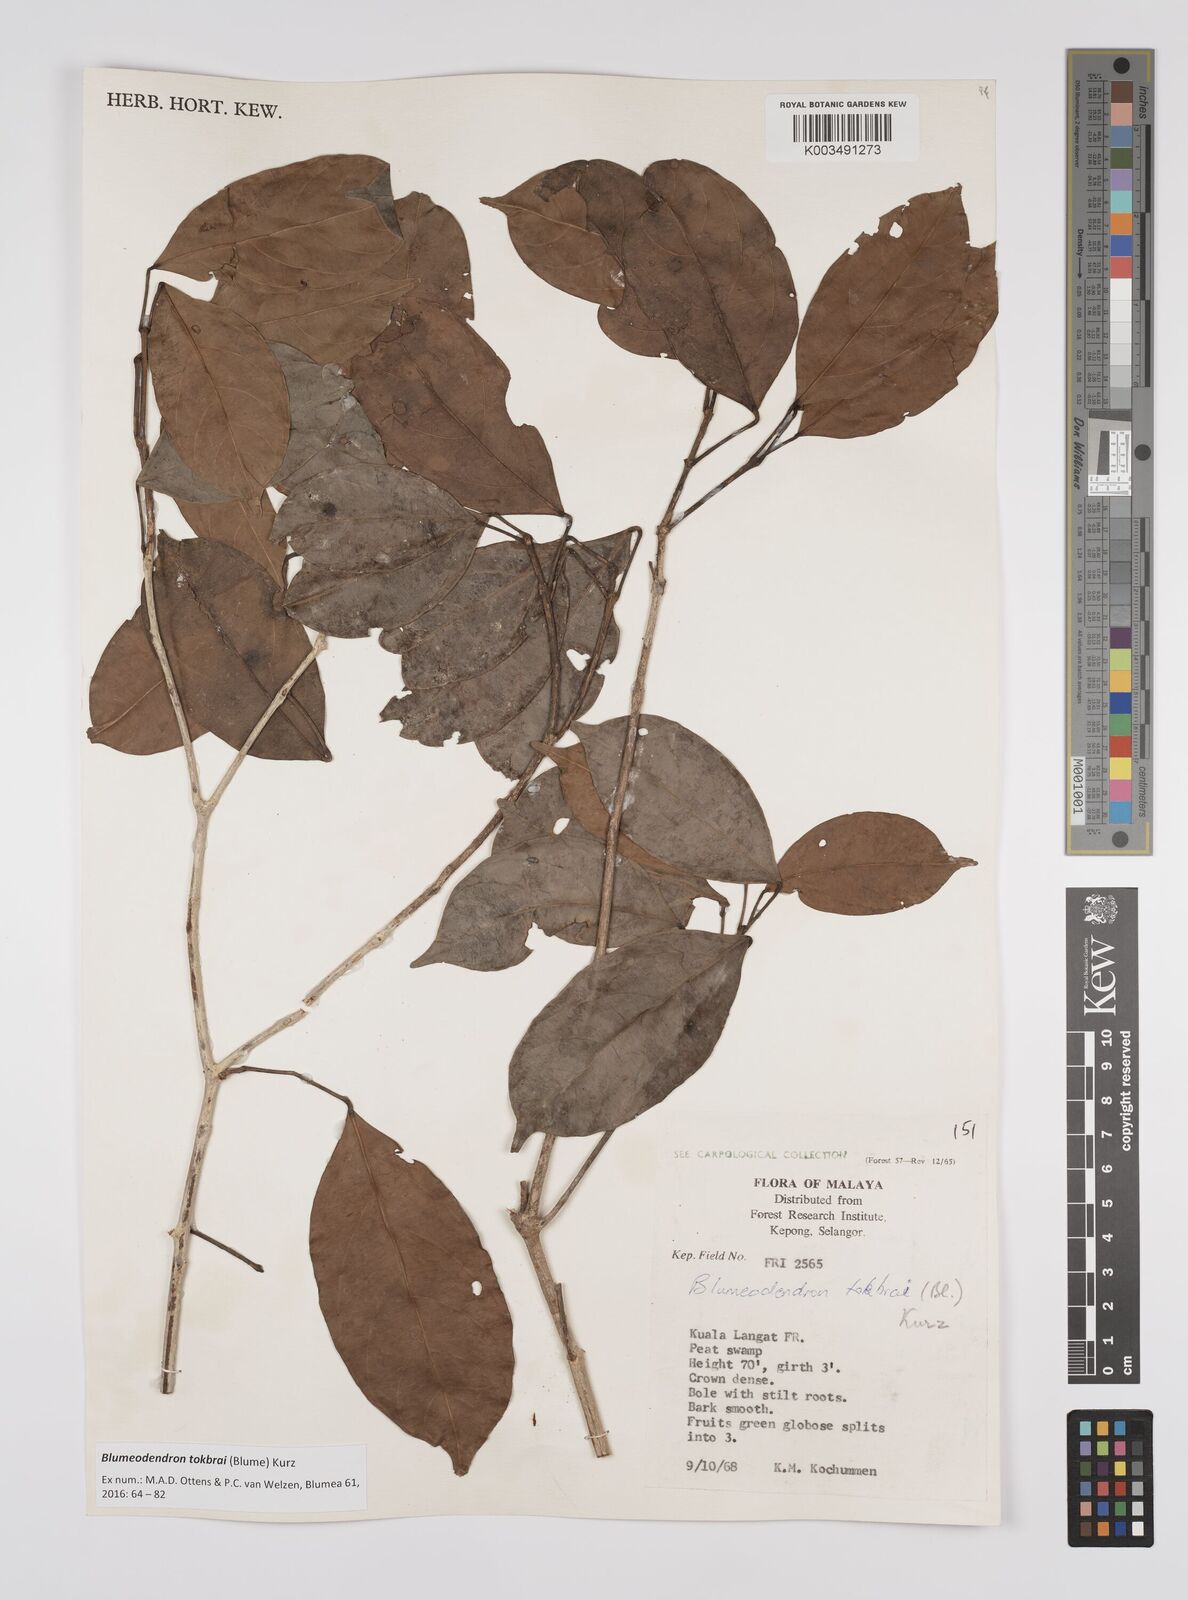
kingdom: Plantae
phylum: Tracheophyta
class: Magnoliopsida
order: Malpighiales
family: Euphorbiaceae
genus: Blumeodendron
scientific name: Blumeodendron tokbrai
